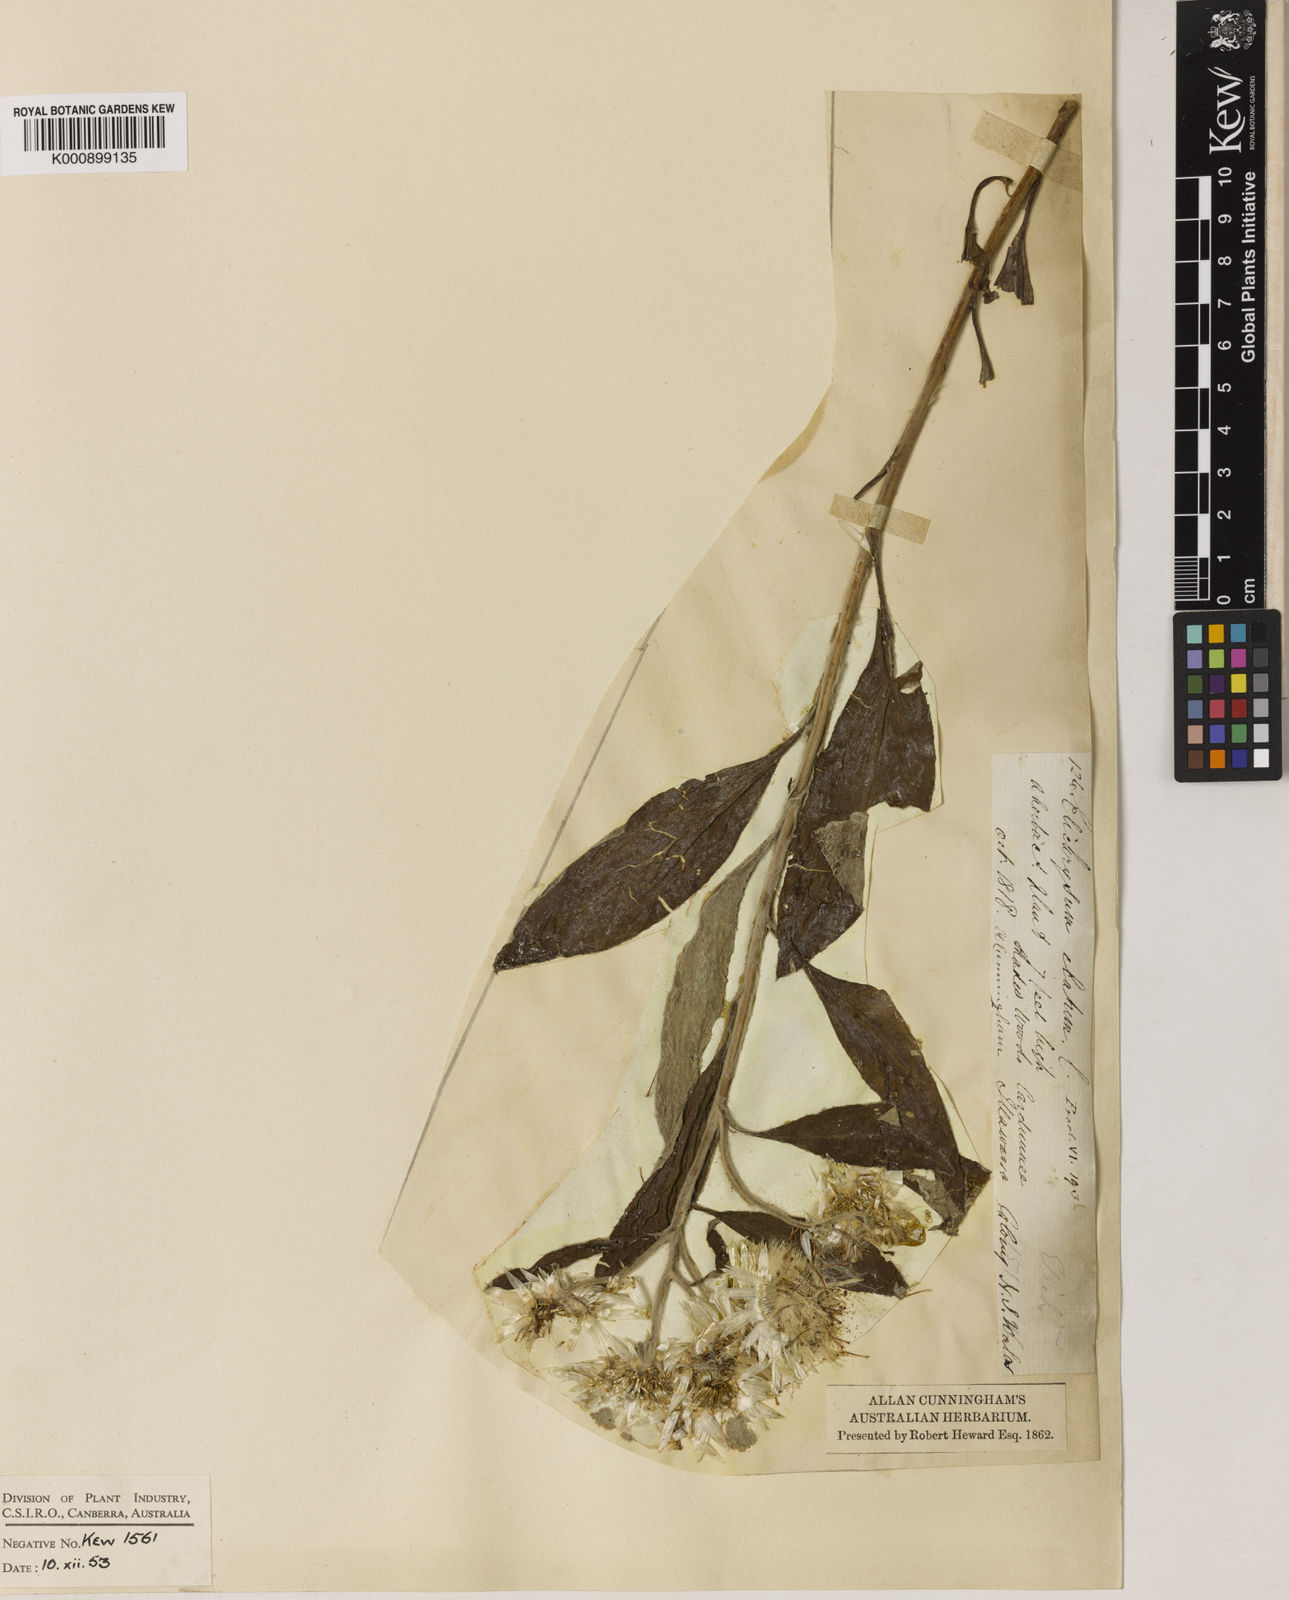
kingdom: Plantae
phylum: Tracheophyta
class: Magnoliopsida
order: Asterales
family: Asteraceae
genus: Leucozoma
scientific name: Leucozoma elatum
